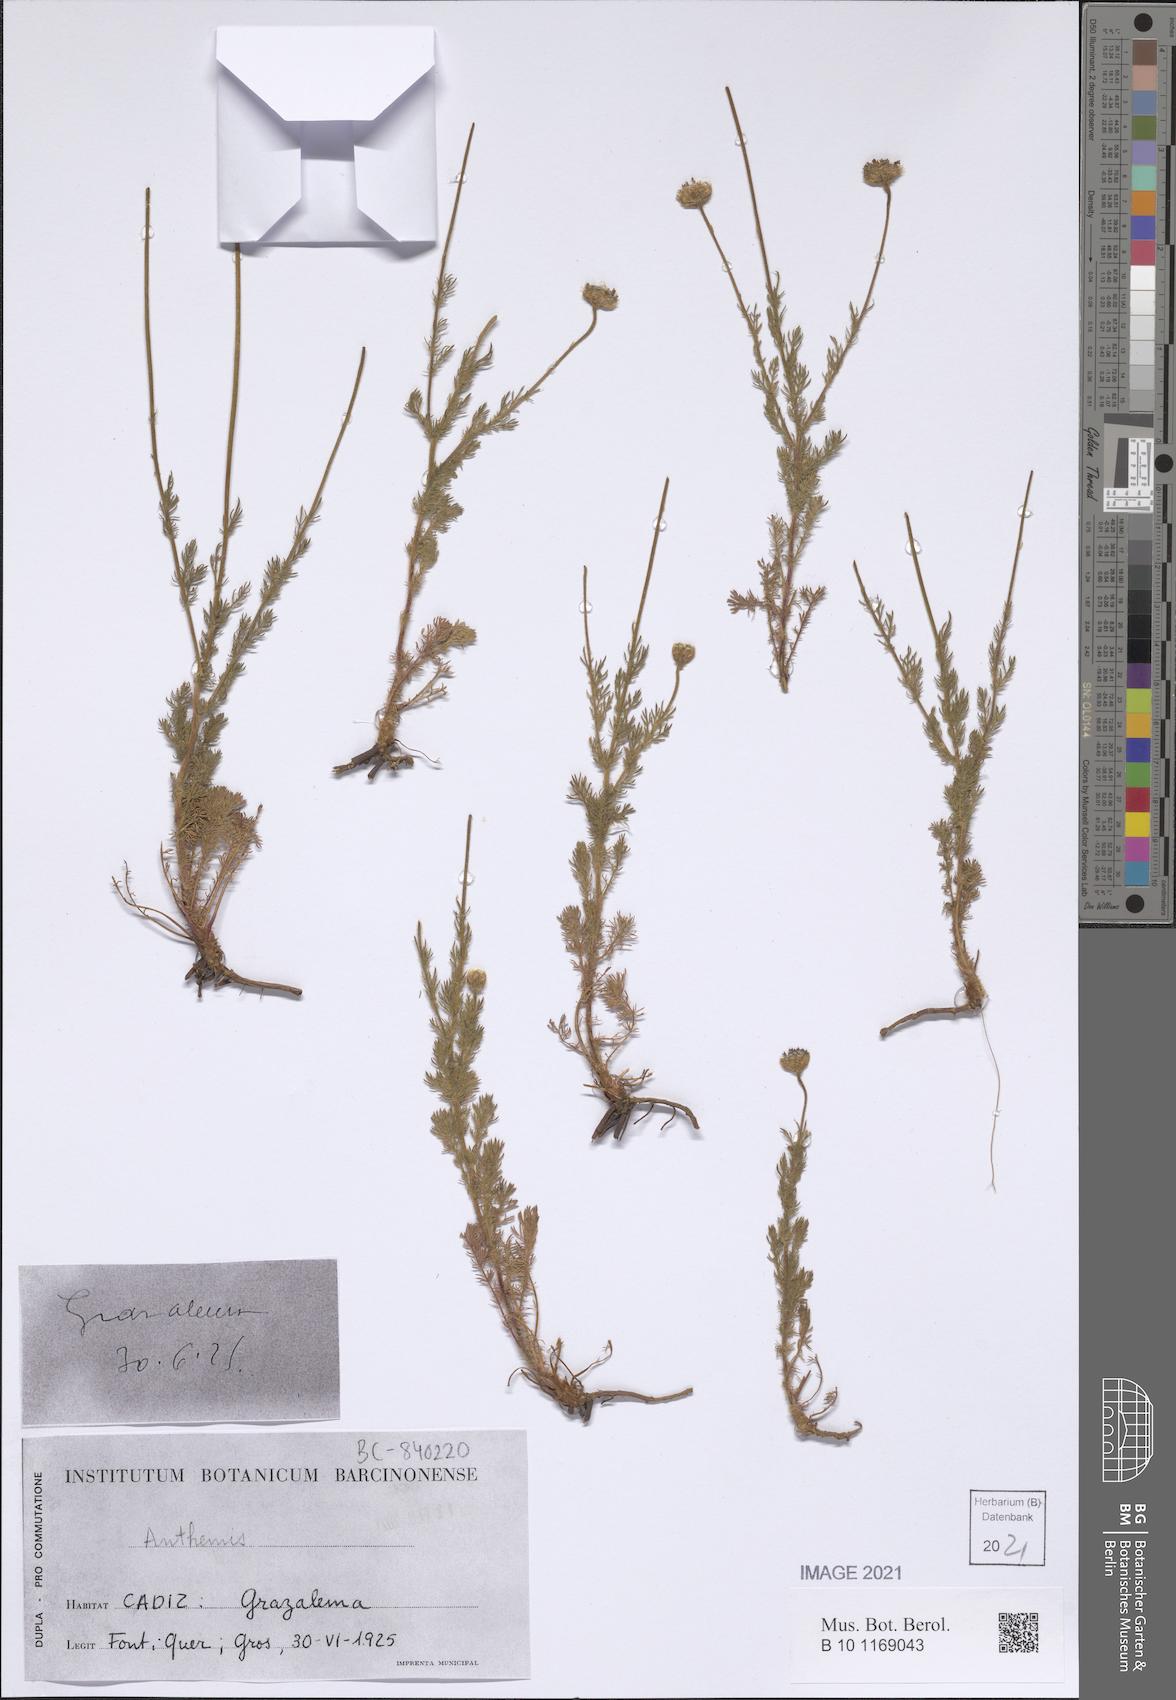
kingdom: Plantae
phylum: Tracheophyta
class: Magnoliopsida
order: Asterales
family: Asteraceae
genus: Anthemis
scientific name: Anthemis
